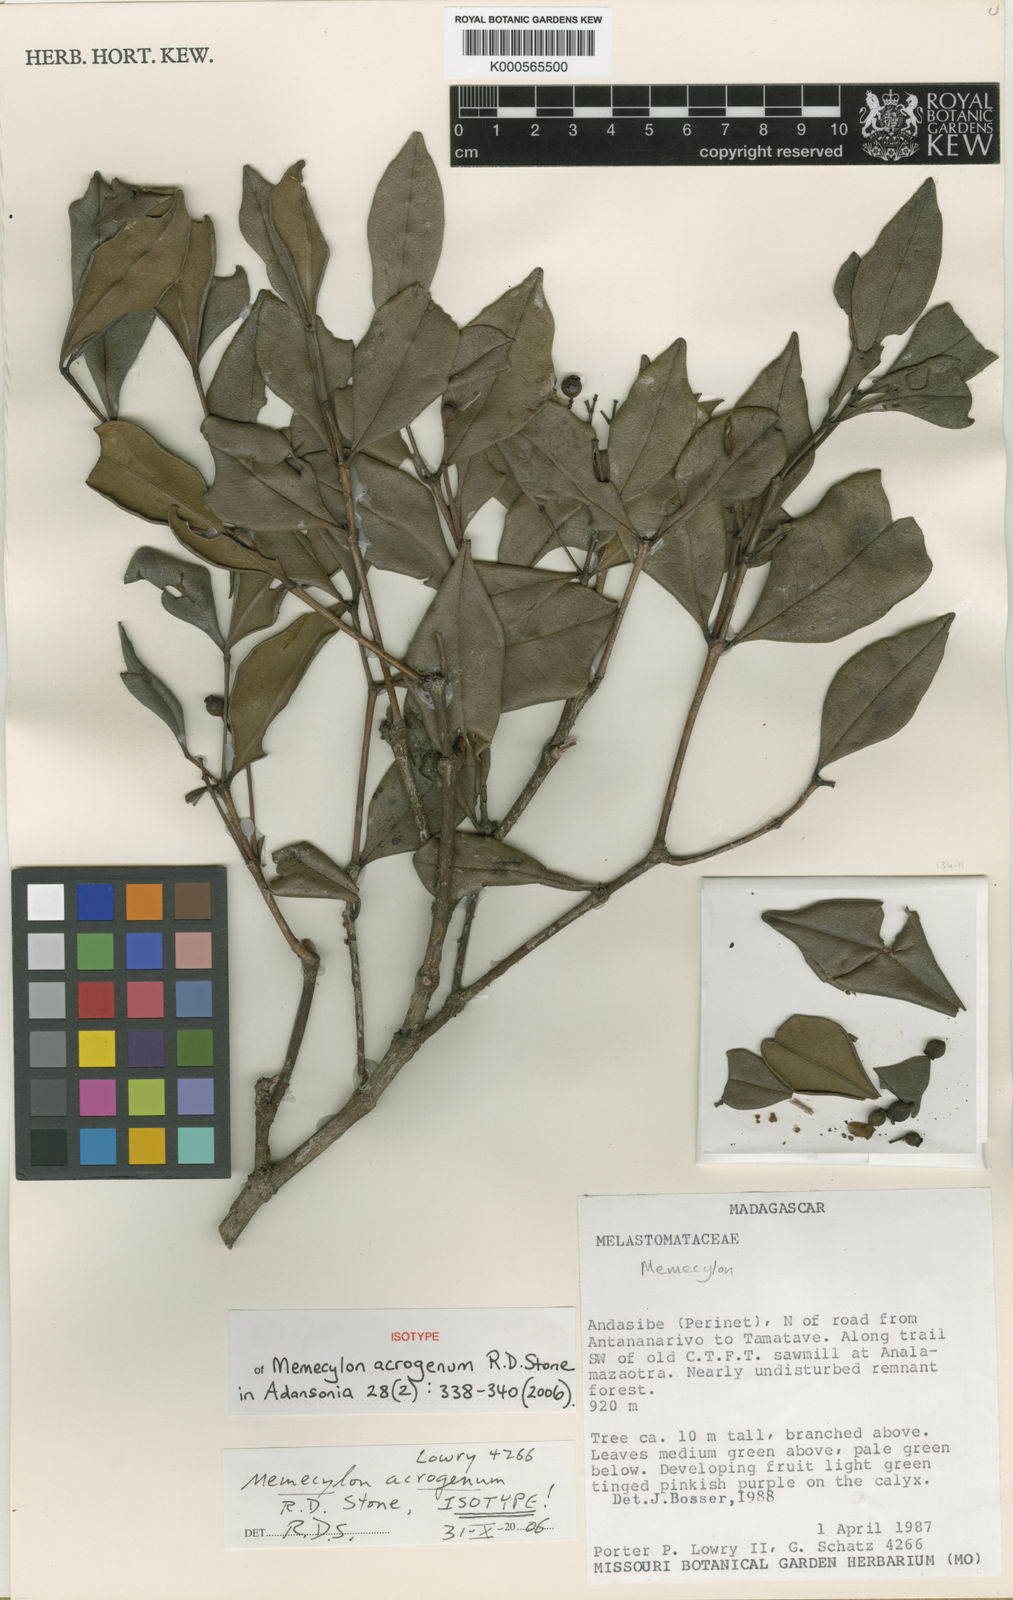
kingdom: Plantae
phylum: Tracheophyta
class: Magnoliopsida
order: Myrtales
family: Melastomataceae
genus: Memecylon
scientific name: Memecylon acrogenum
